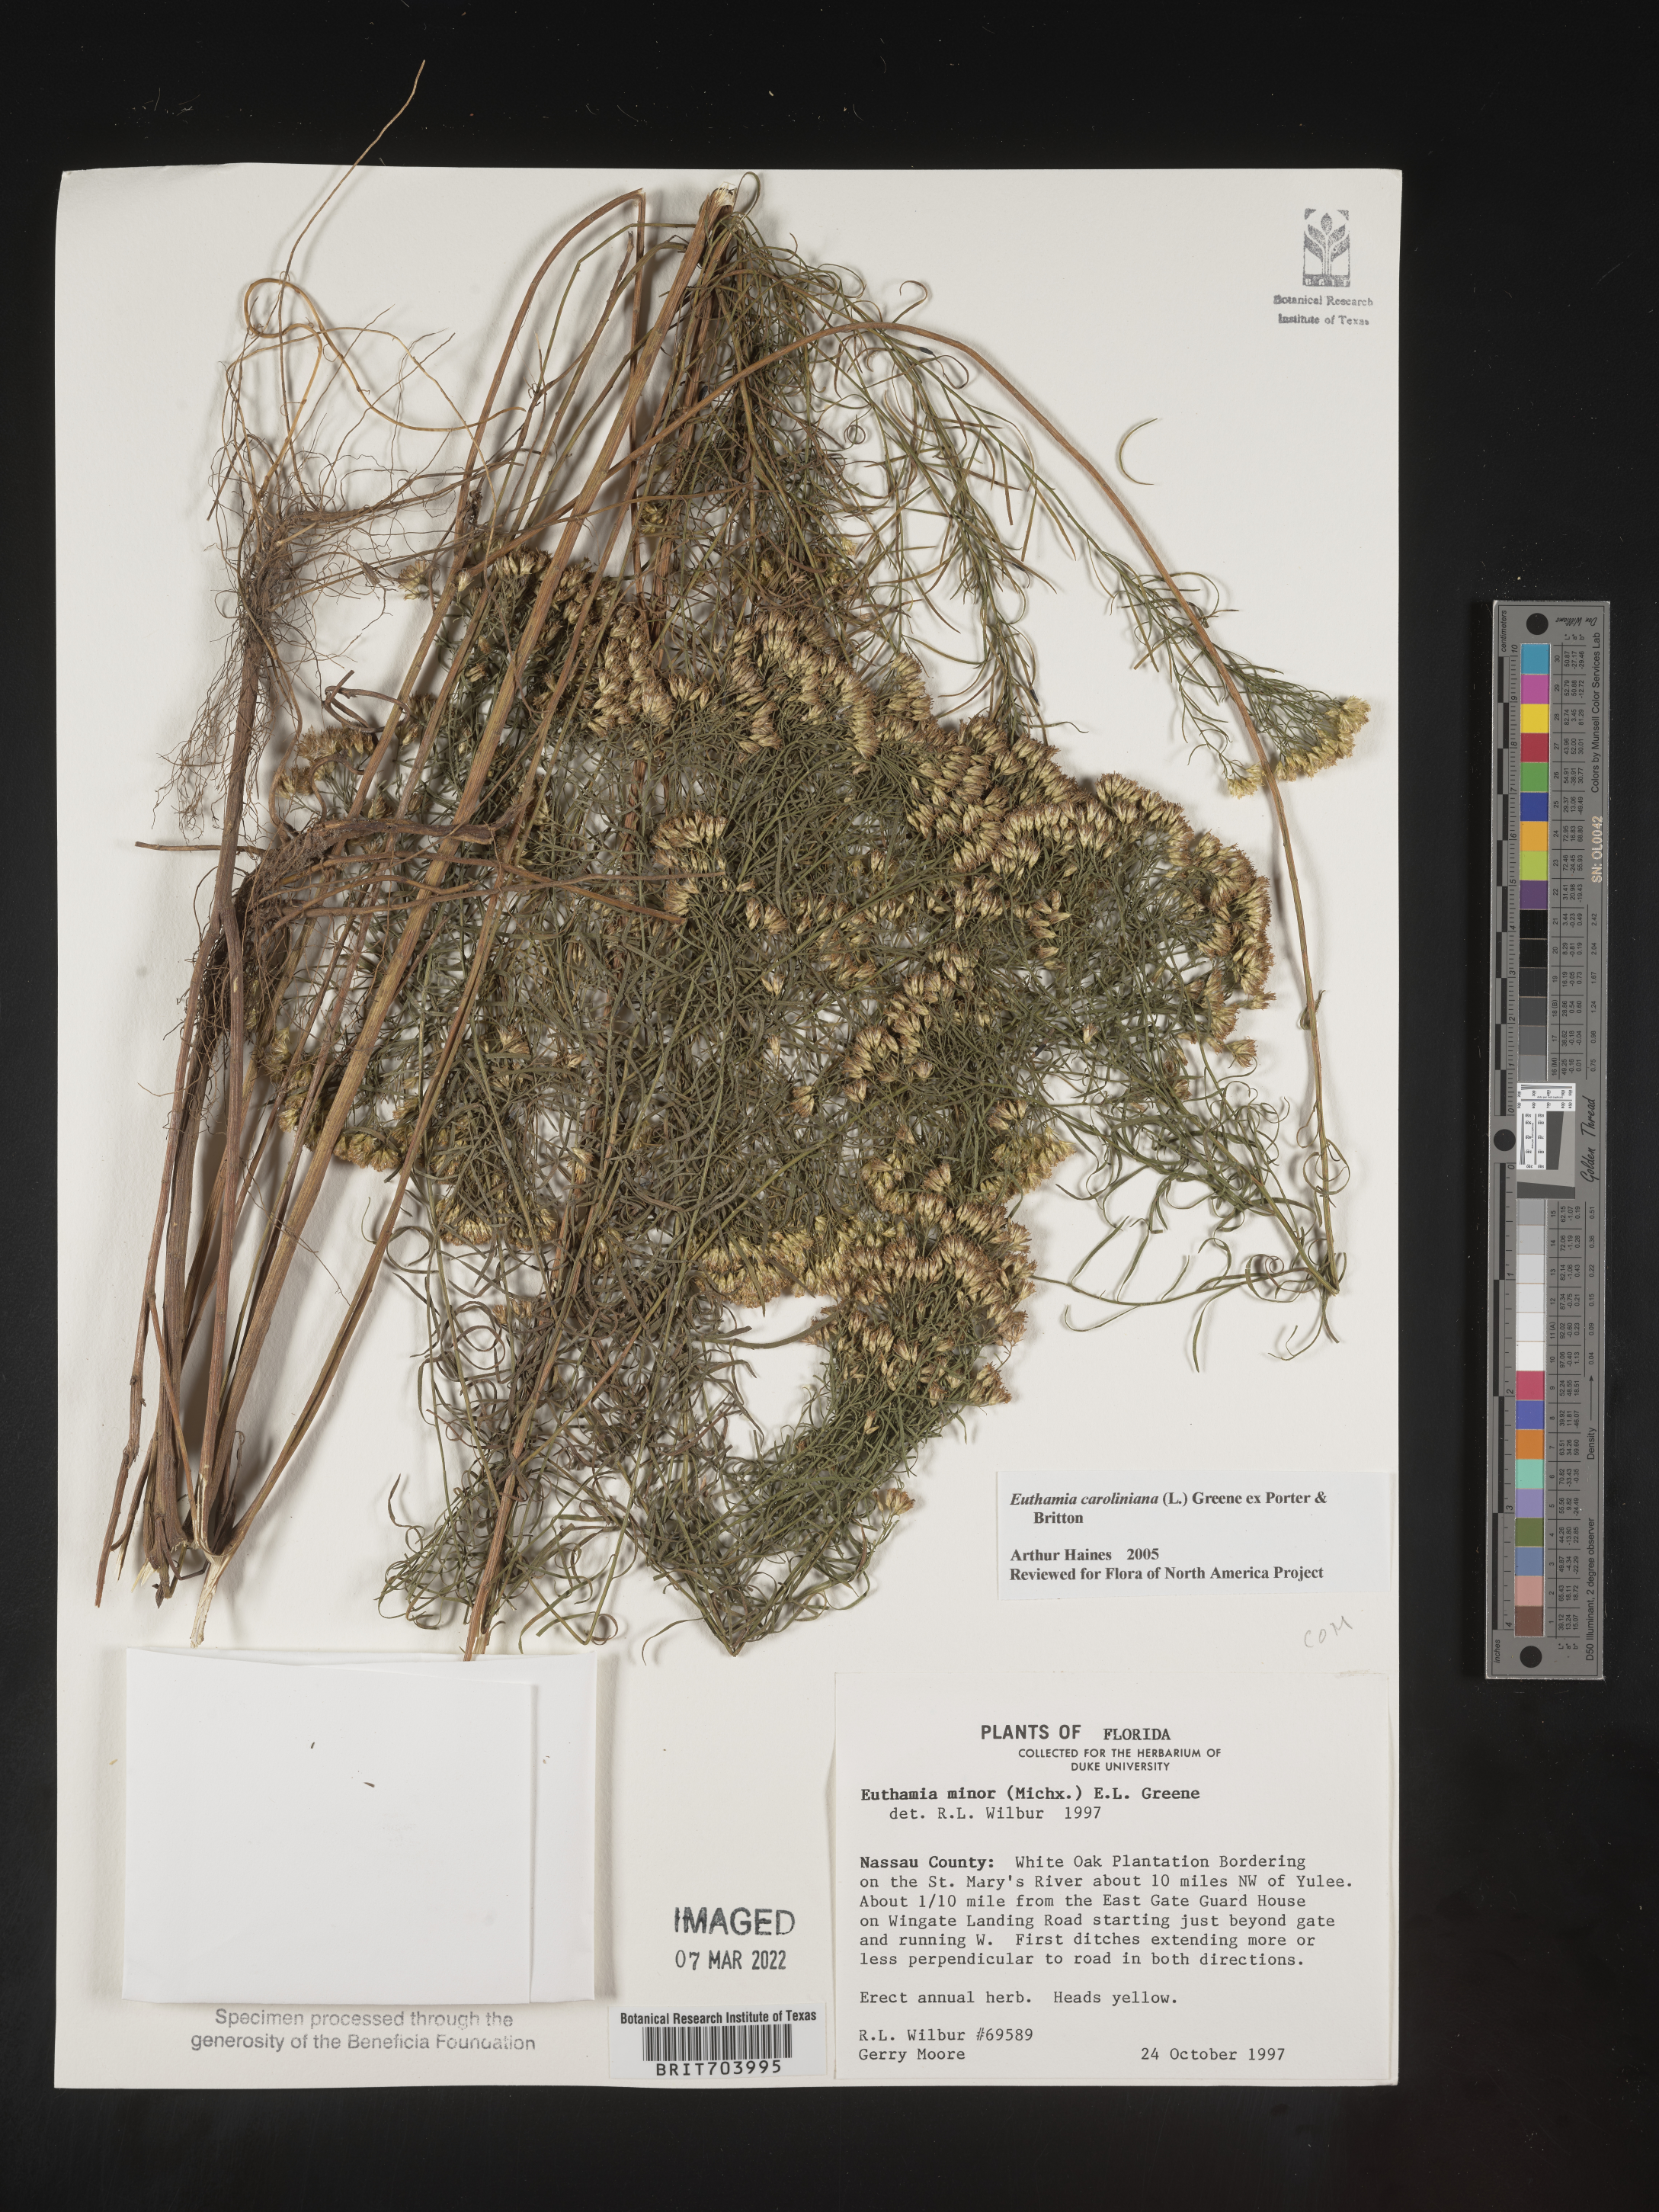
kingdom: Plantae
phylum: Tracheophyta
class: Magnoliopsida
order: Asterales
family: Asteraceae
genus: Euthamia
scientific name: Euthamia caroliniana
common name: Coastal plain goldentop
